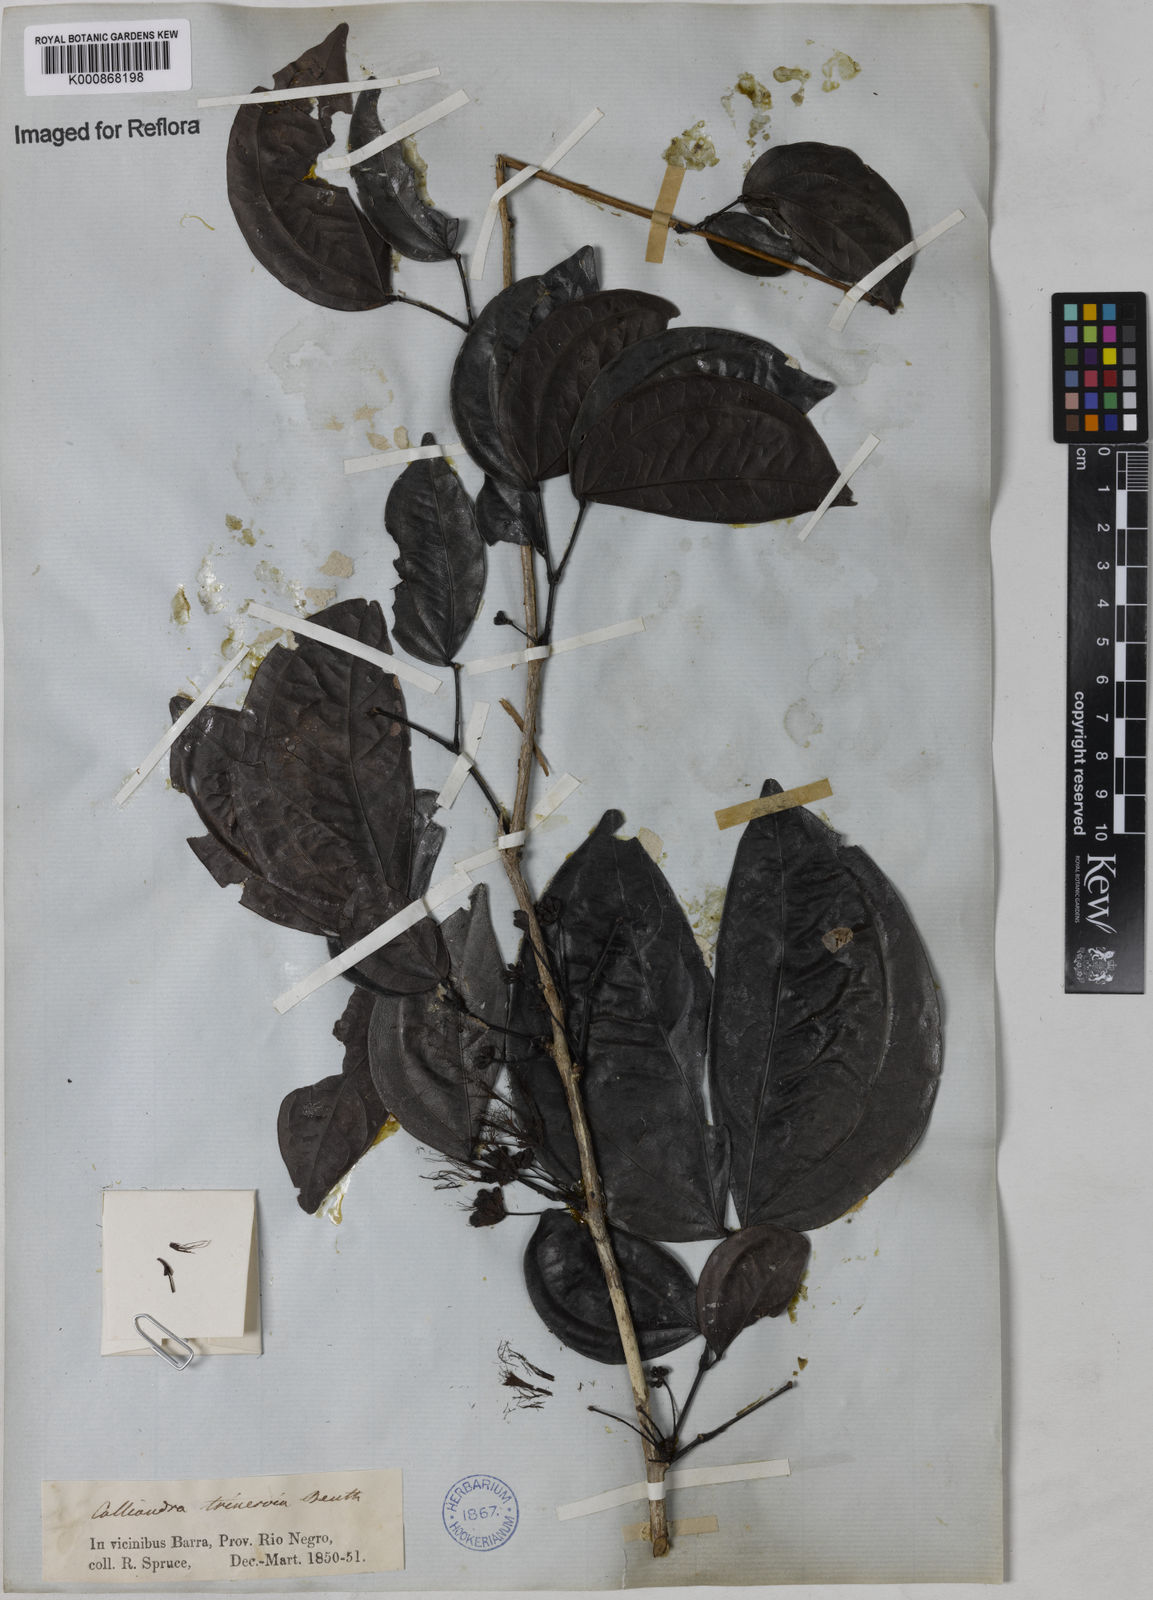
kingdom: Plantae
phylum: Tracheophyta
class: Magnoliopsida
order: Fabales
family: Fabaceae
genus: Calliandra
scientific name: Calliandra trinervia
